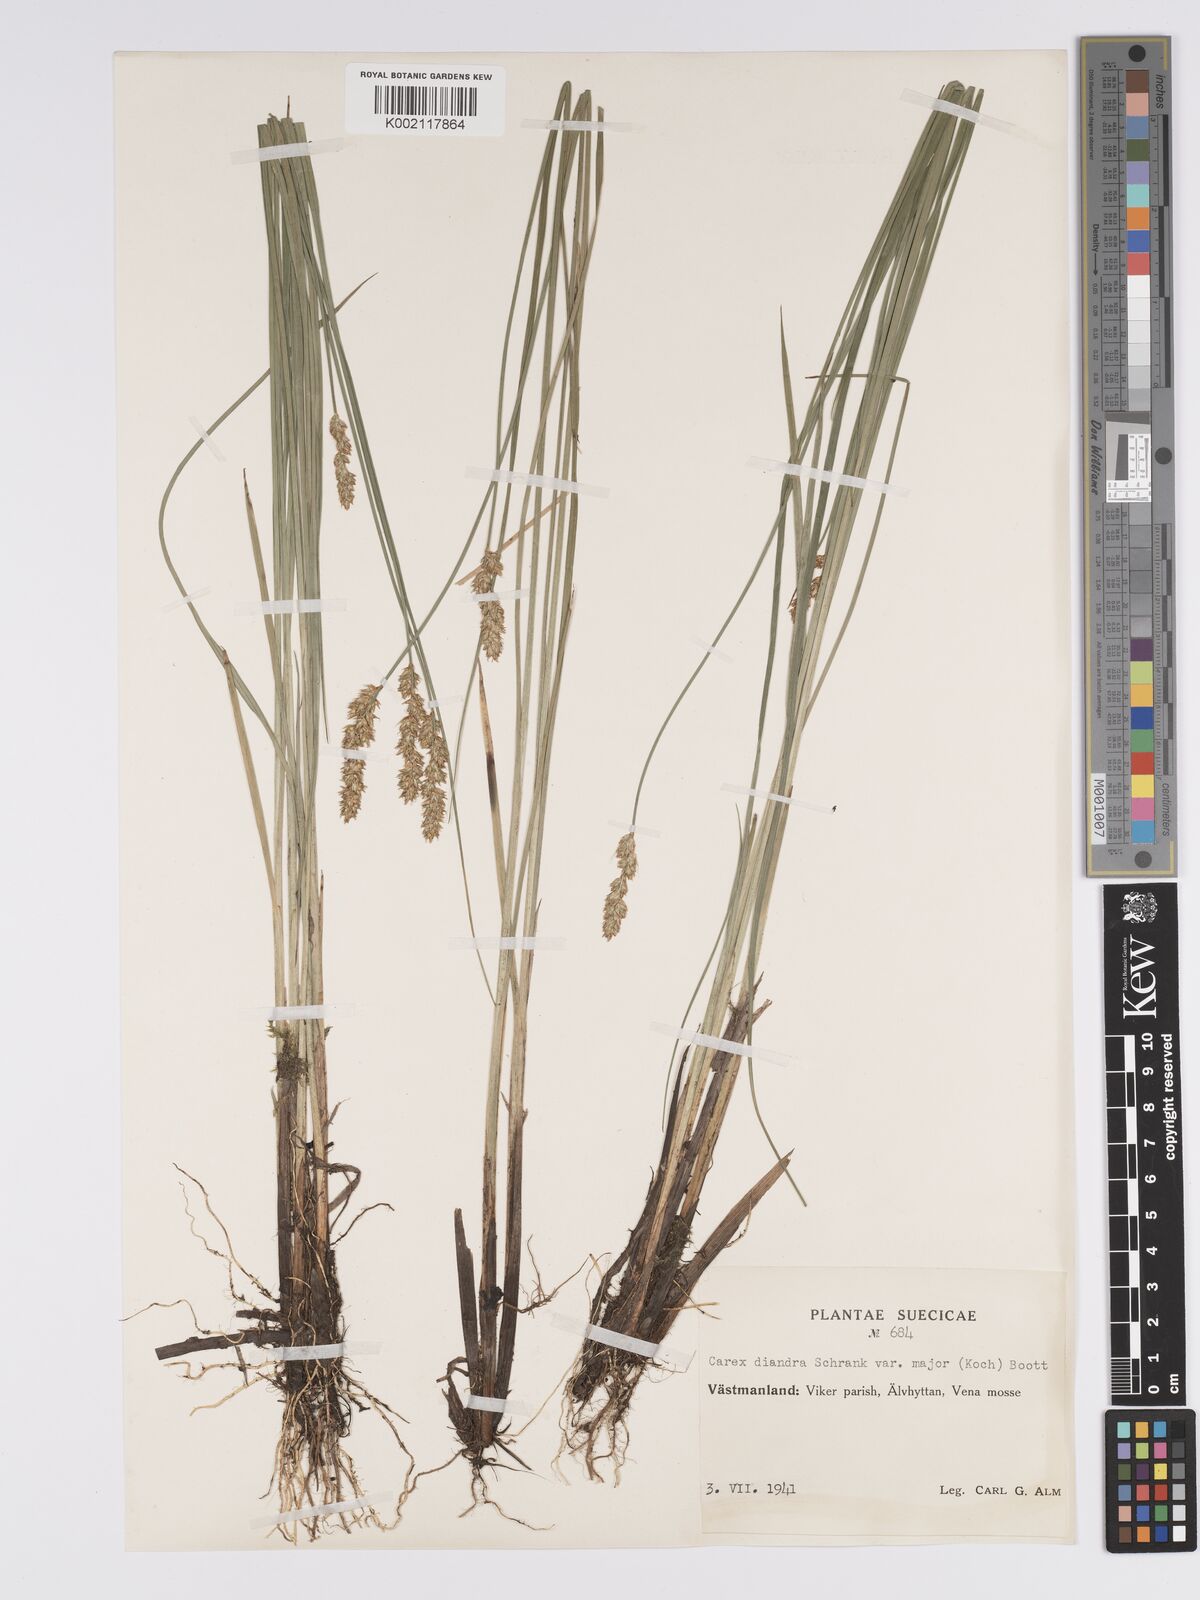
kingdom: Plantae
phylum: Tracheophyta
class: Liliopsida
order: Poales
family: Cyperaceae
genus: Carex
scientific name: Carex diandra
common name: Lesser tussock-sedge
